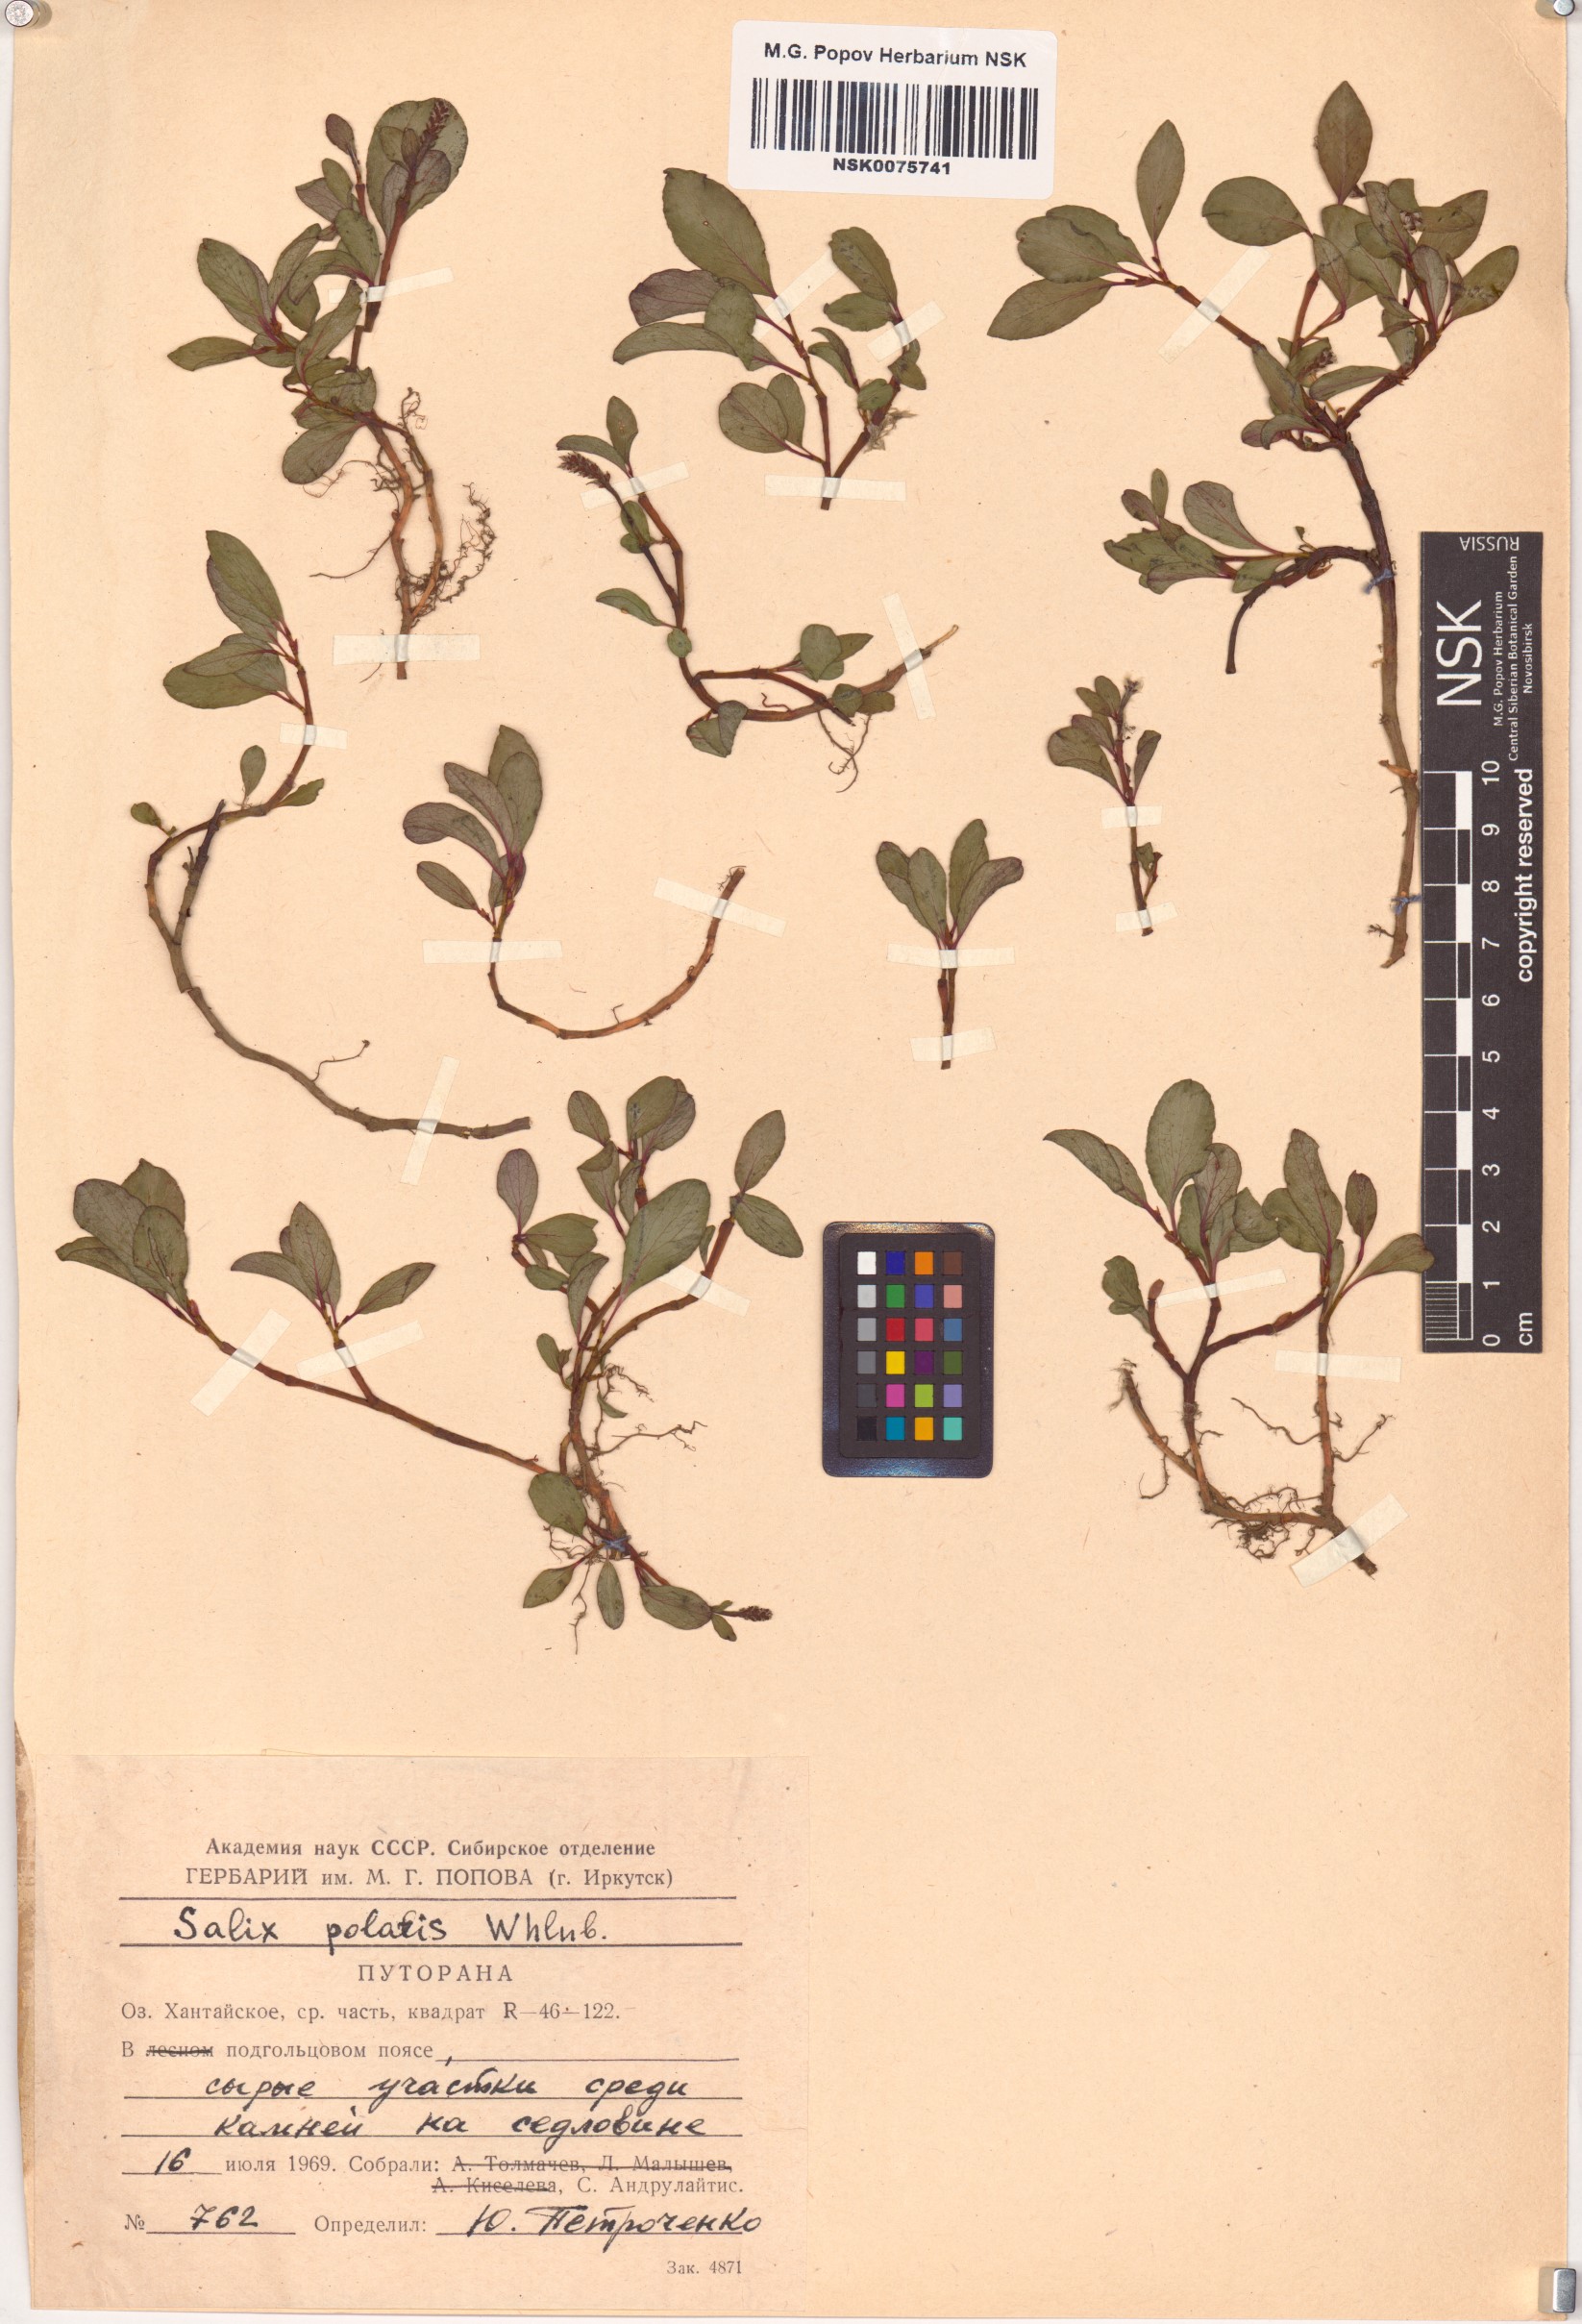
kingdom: Plantae
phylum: Tracheophyta
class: Magnoliopsida
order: Malpighiales
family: Salicaceae
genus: Salix
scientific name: Salix polaris
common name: Polar willow
